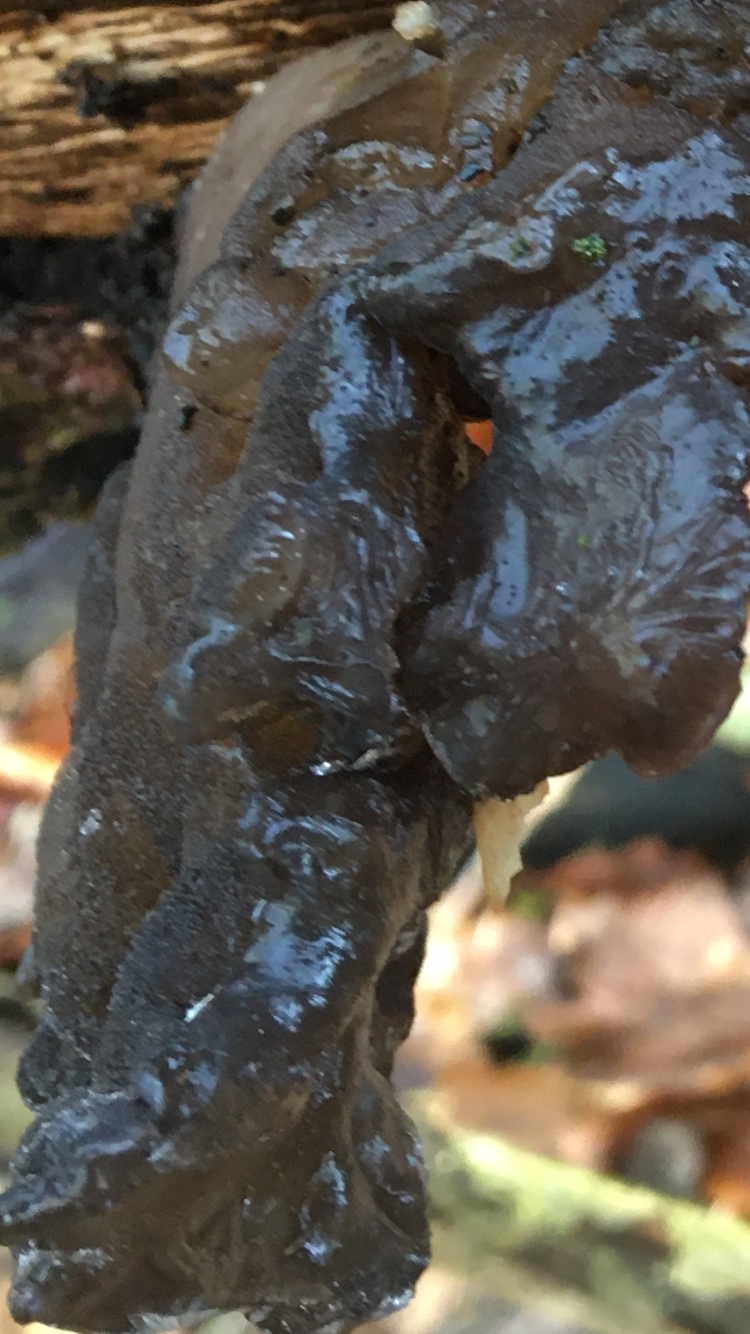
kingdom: Fungi
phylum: Basidiomycota
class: Agaricomycetes
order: Auriculariales
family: Auriculariaceae
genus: Exidia
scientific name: Exidia glandulosa
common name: ege-bævretop
